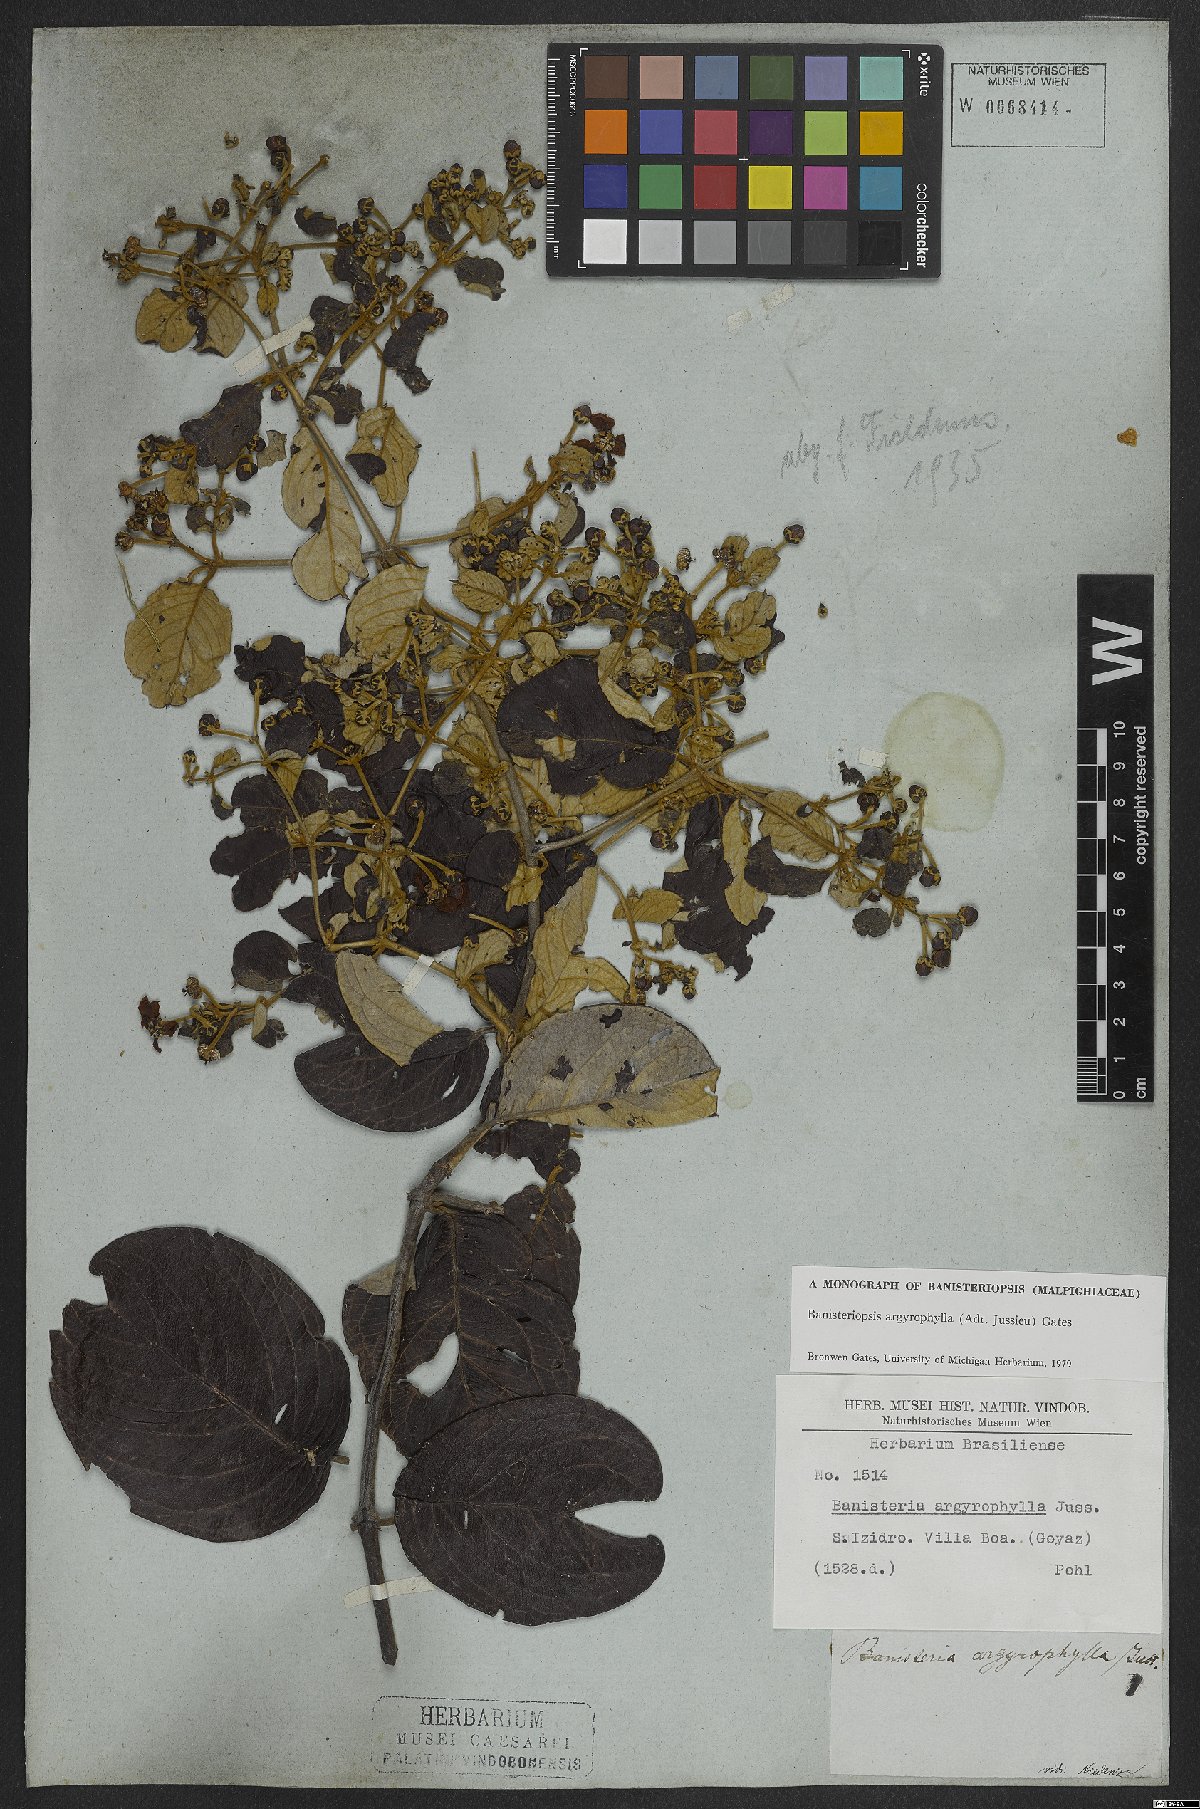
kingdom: Plantae
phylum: Tracheophyta
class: Magnoliopsida
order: Malpighiales
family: Malpighiaceae
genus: Banisteriopsis
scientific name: Banisteriopsis argyrophylla
